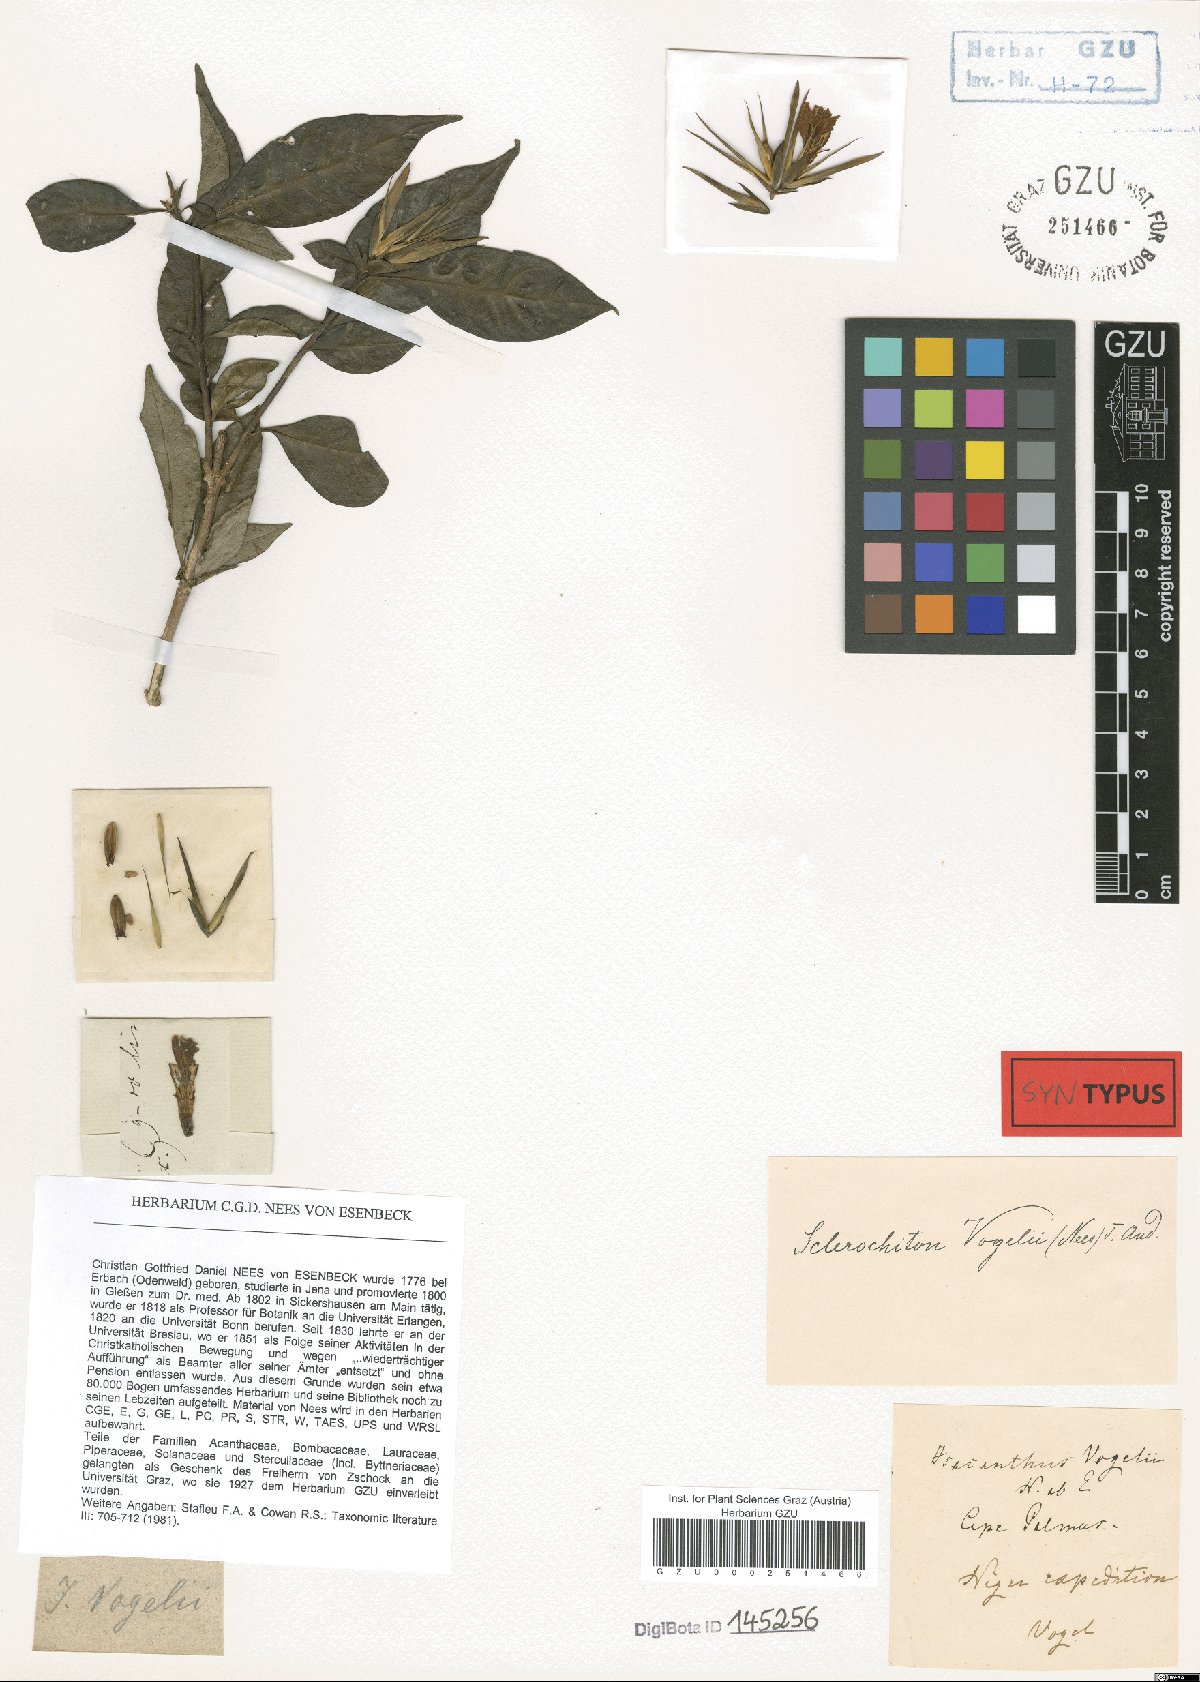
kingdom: Plantae
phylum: Tracheophyta
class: Magnoliopsida
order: Lamiales
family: Acanthaceae
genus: Sclerochiton
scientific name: Sclerochiton vogelii
